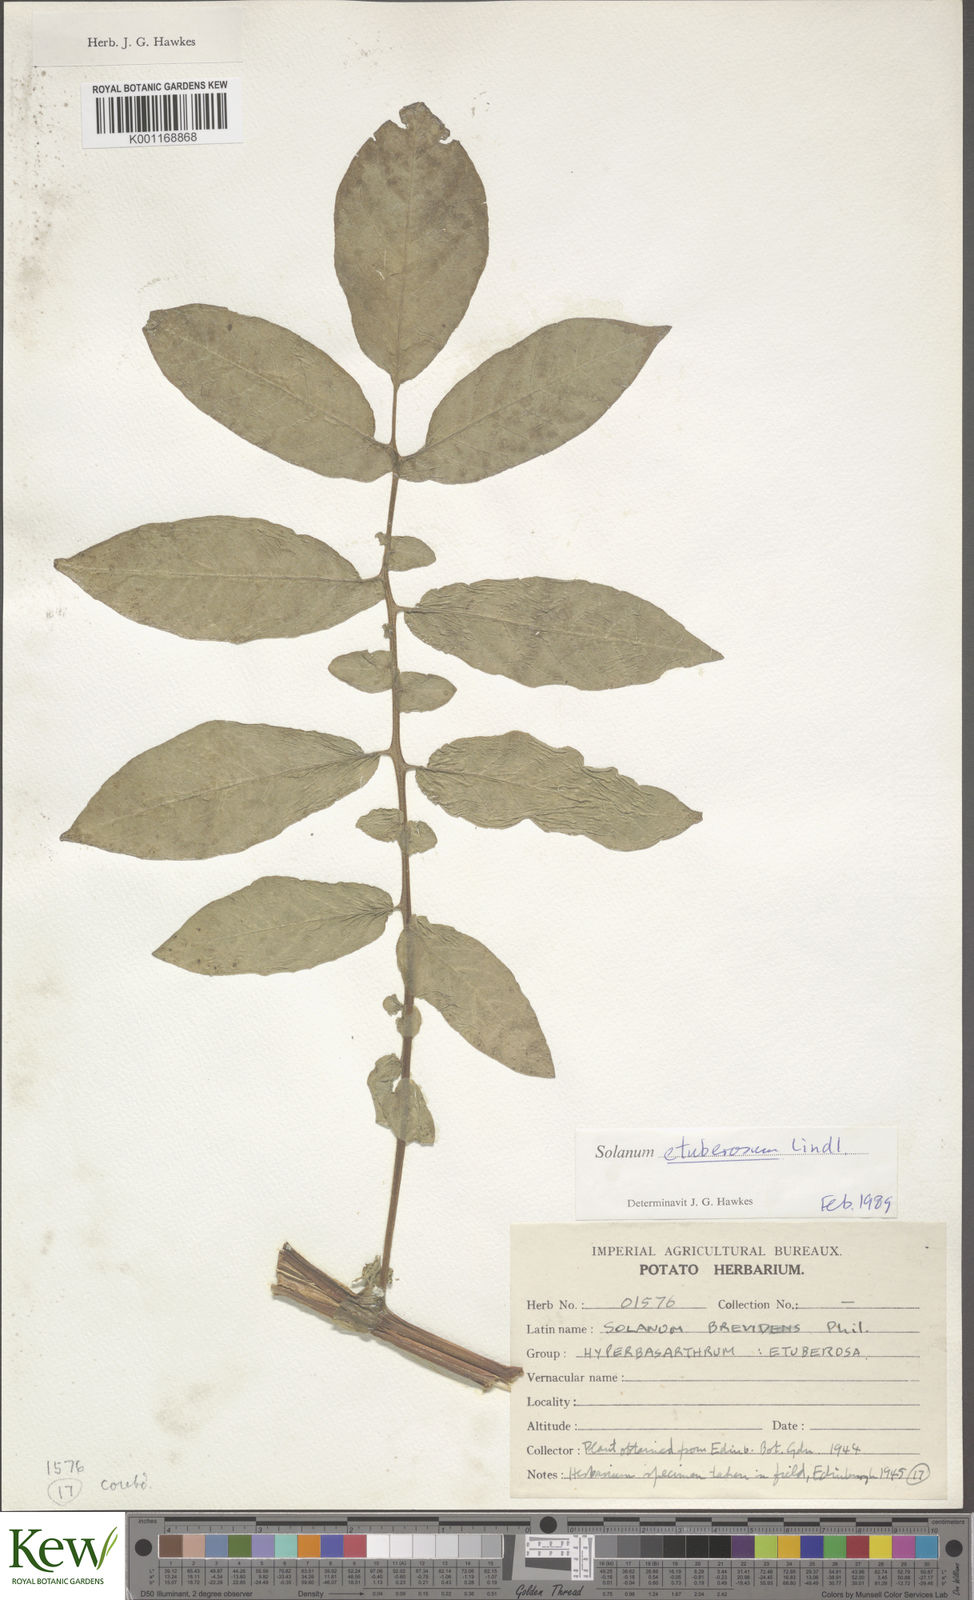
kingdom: Plantae
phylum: Tracheophyta
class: Magnoliopsida
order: Solanales
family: Solanaceae
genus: Solanum
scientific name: Solanum etuberosum
